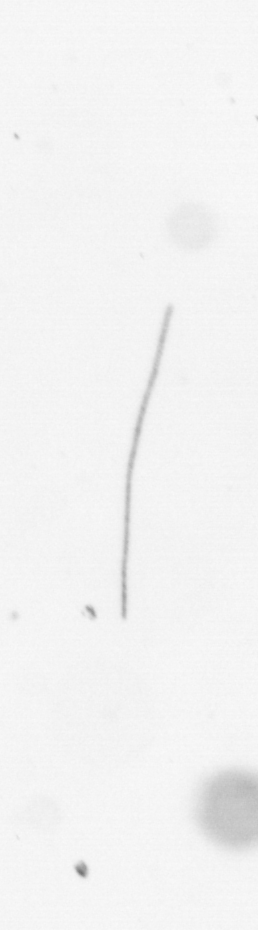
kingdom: Chromista
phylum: Ochrophyta
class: Bacillariophyceae
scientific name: Bacillariophyceae
